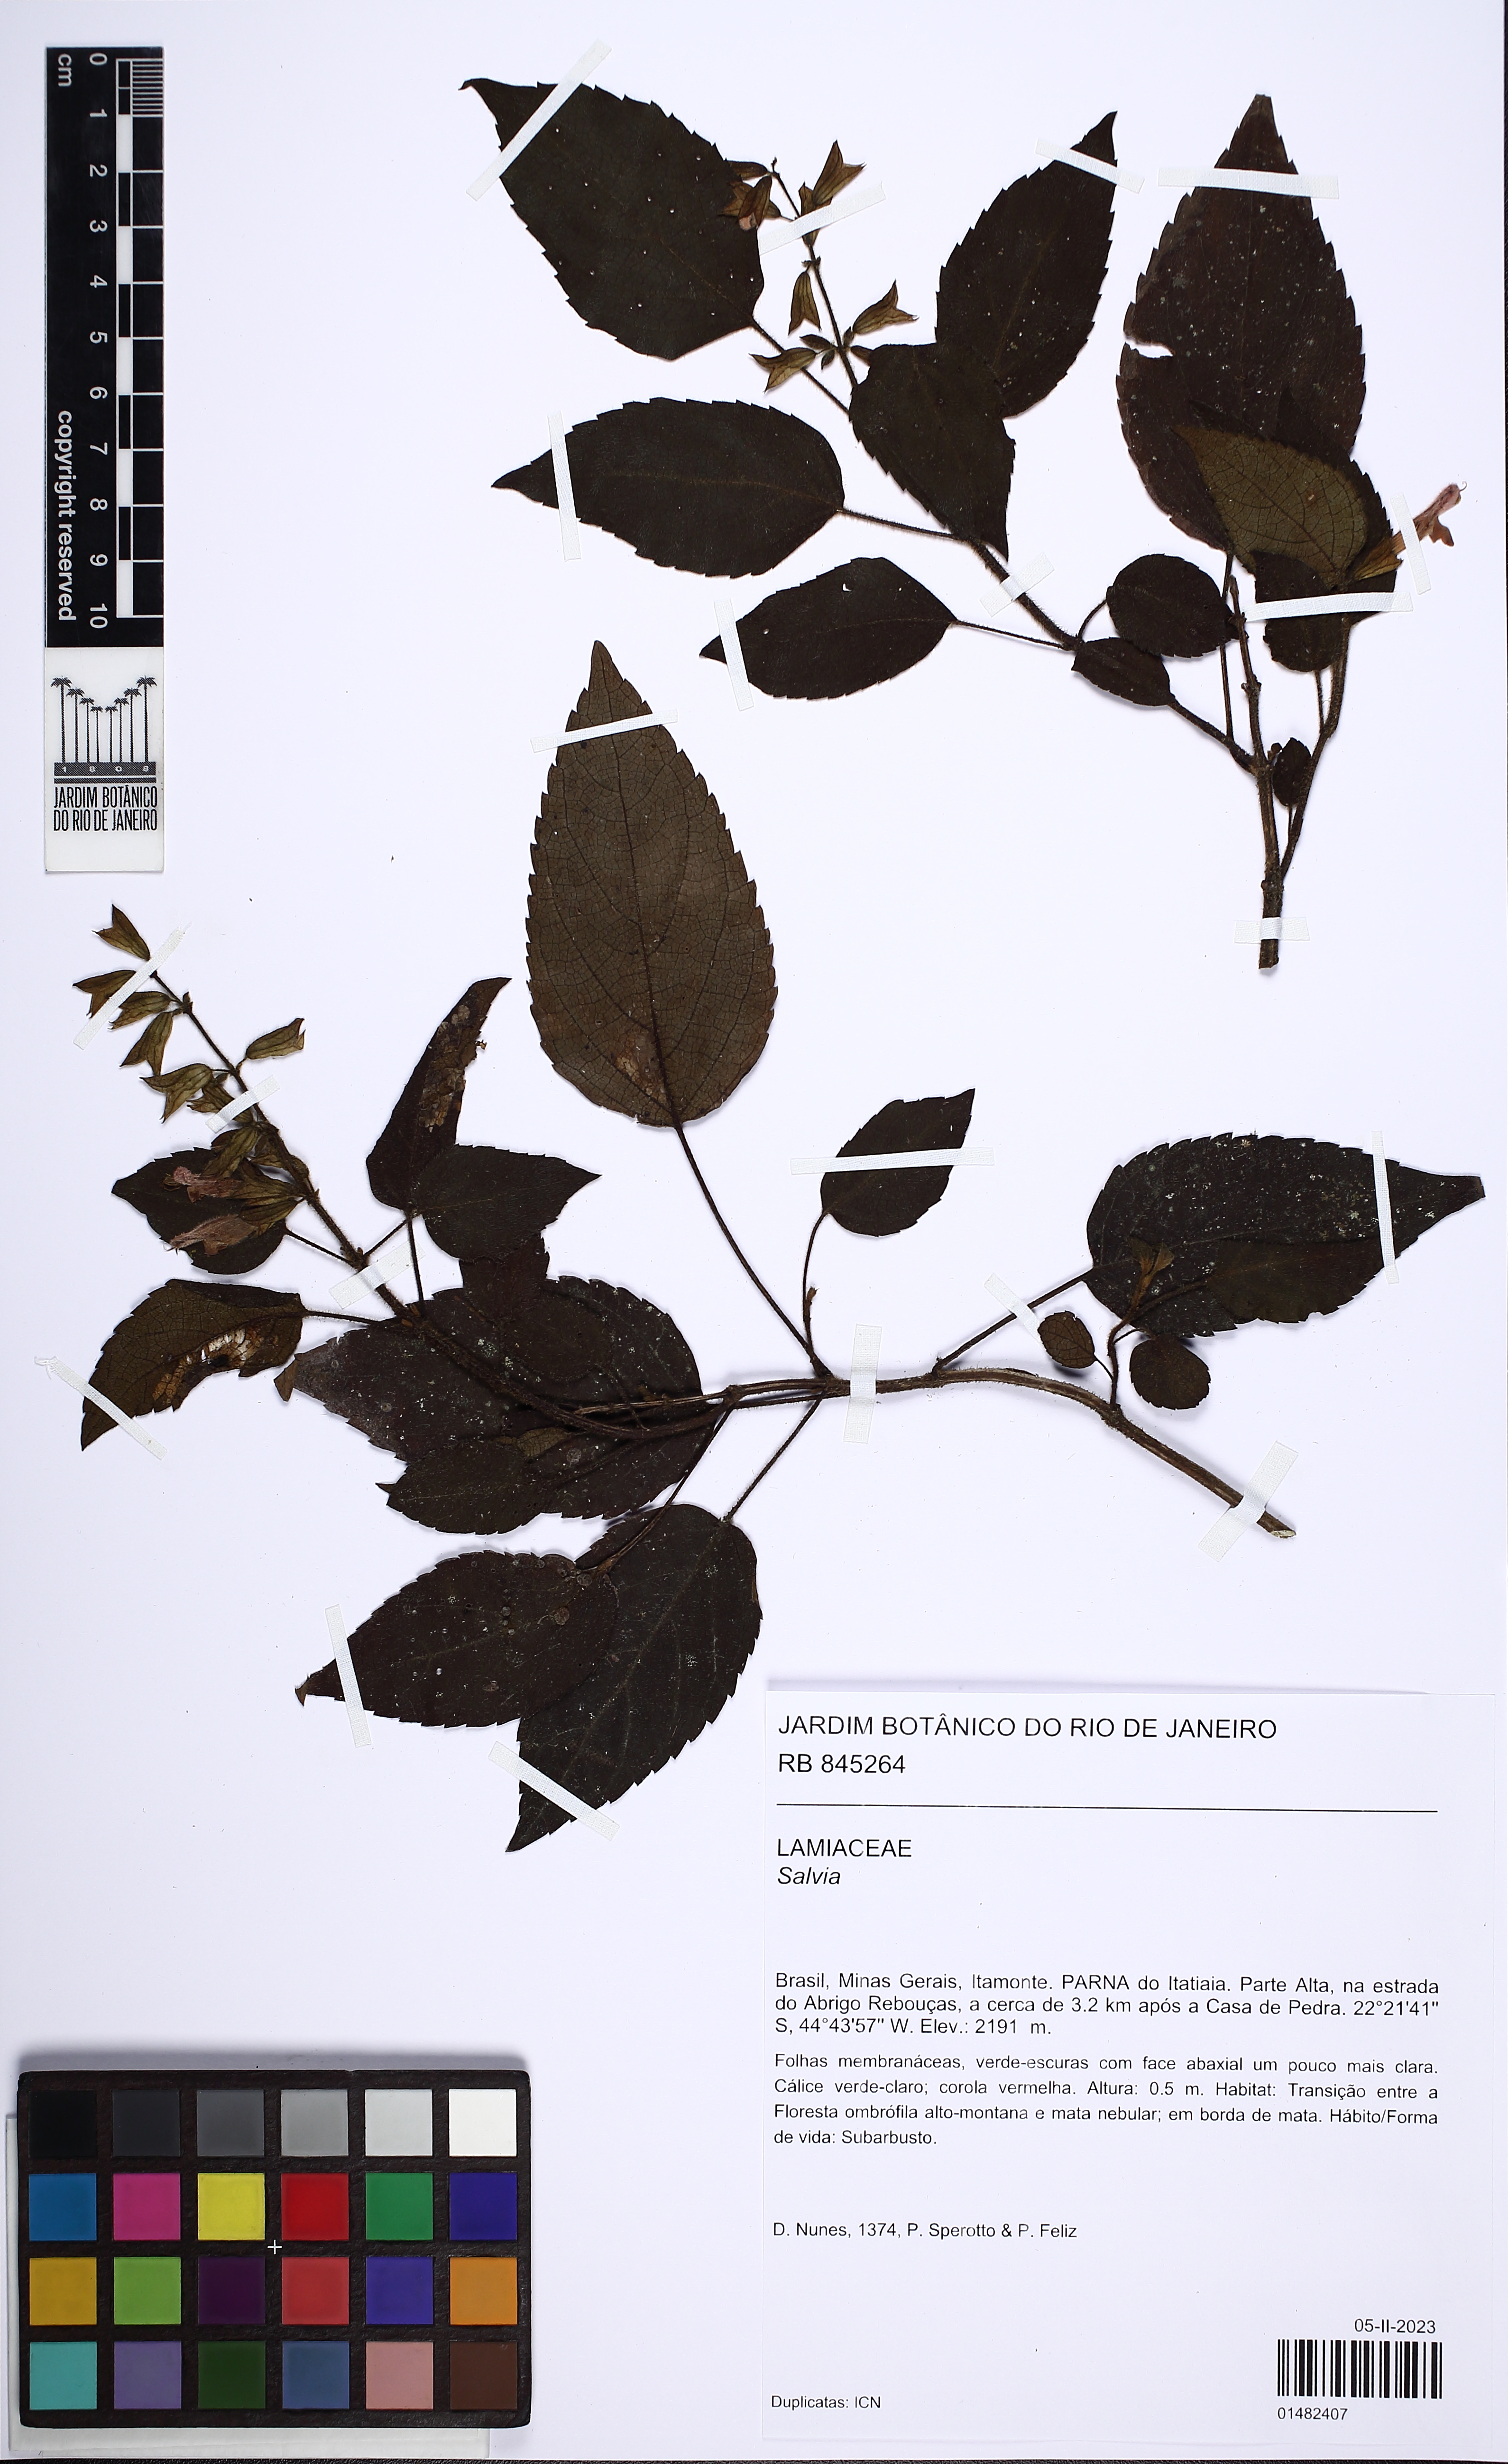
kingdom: Plantae
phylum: Tracheophyta
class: Magnoliopsida
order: Lamiales
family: Lamiaceae
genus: Salvia
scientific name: Salvia
